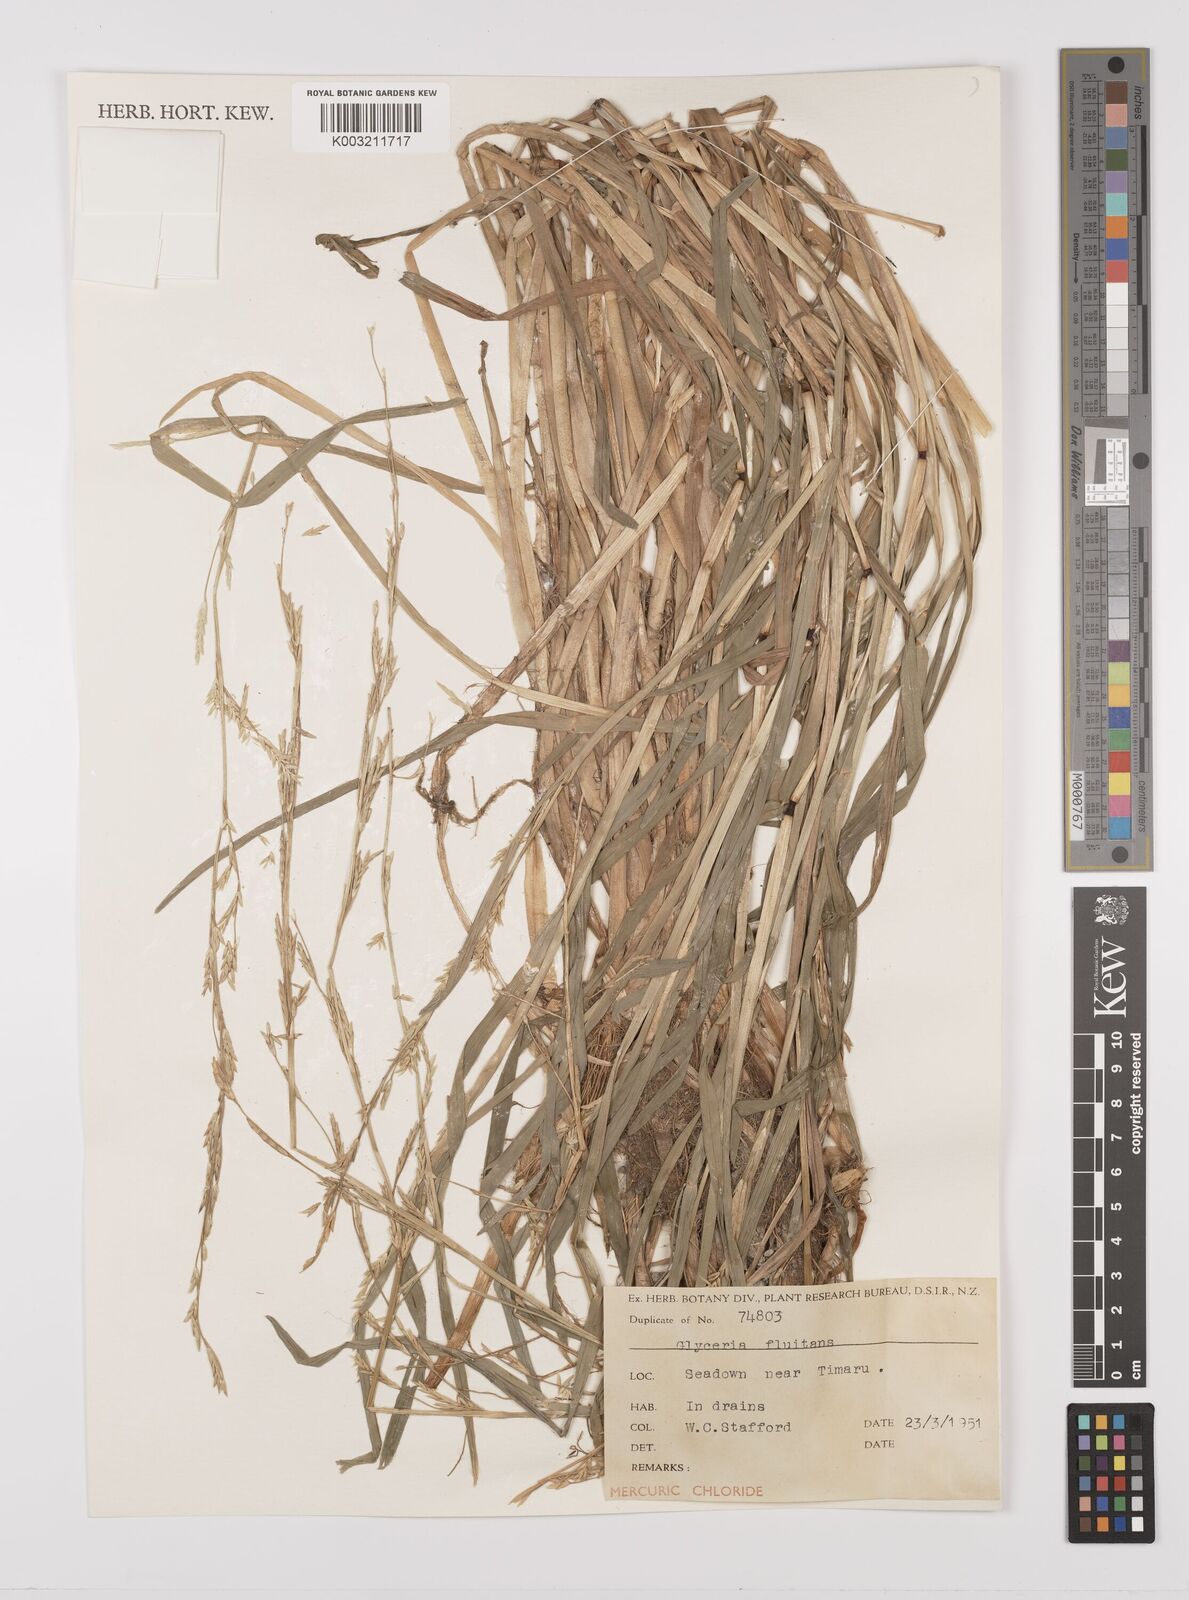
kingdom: Plantae
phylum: Tracheophyta
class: Liliopsida
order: Poales
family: Poaceae
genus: Glyceria
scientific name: Glyceria fluitans
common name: Floating sweet-grass
